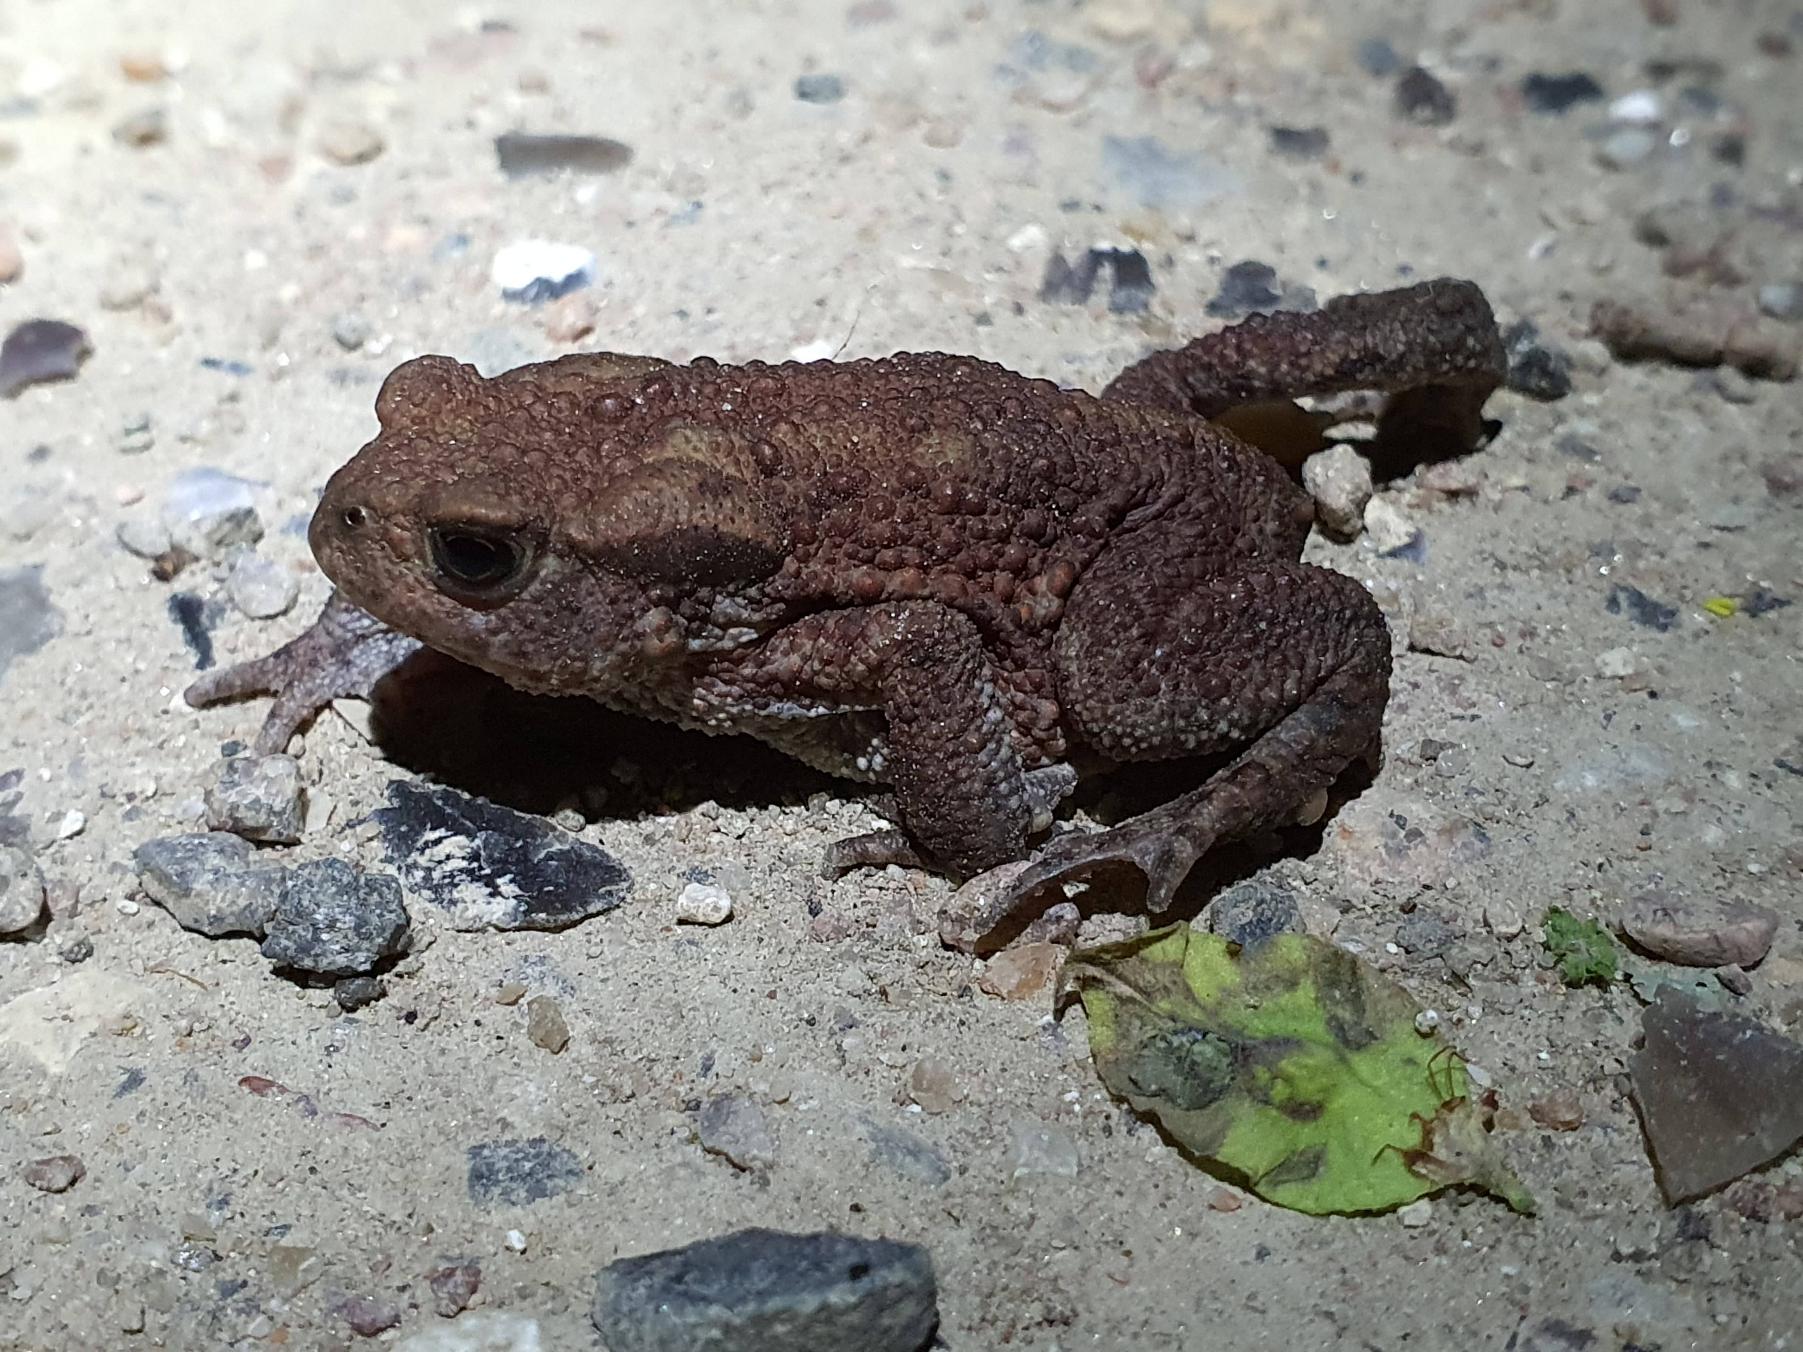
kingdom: Animalia
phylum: Chordata
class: Amphibia
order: Anura
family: Bufonidae
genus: Bufo
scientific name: Bufo bufo
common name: Skrubtudse
